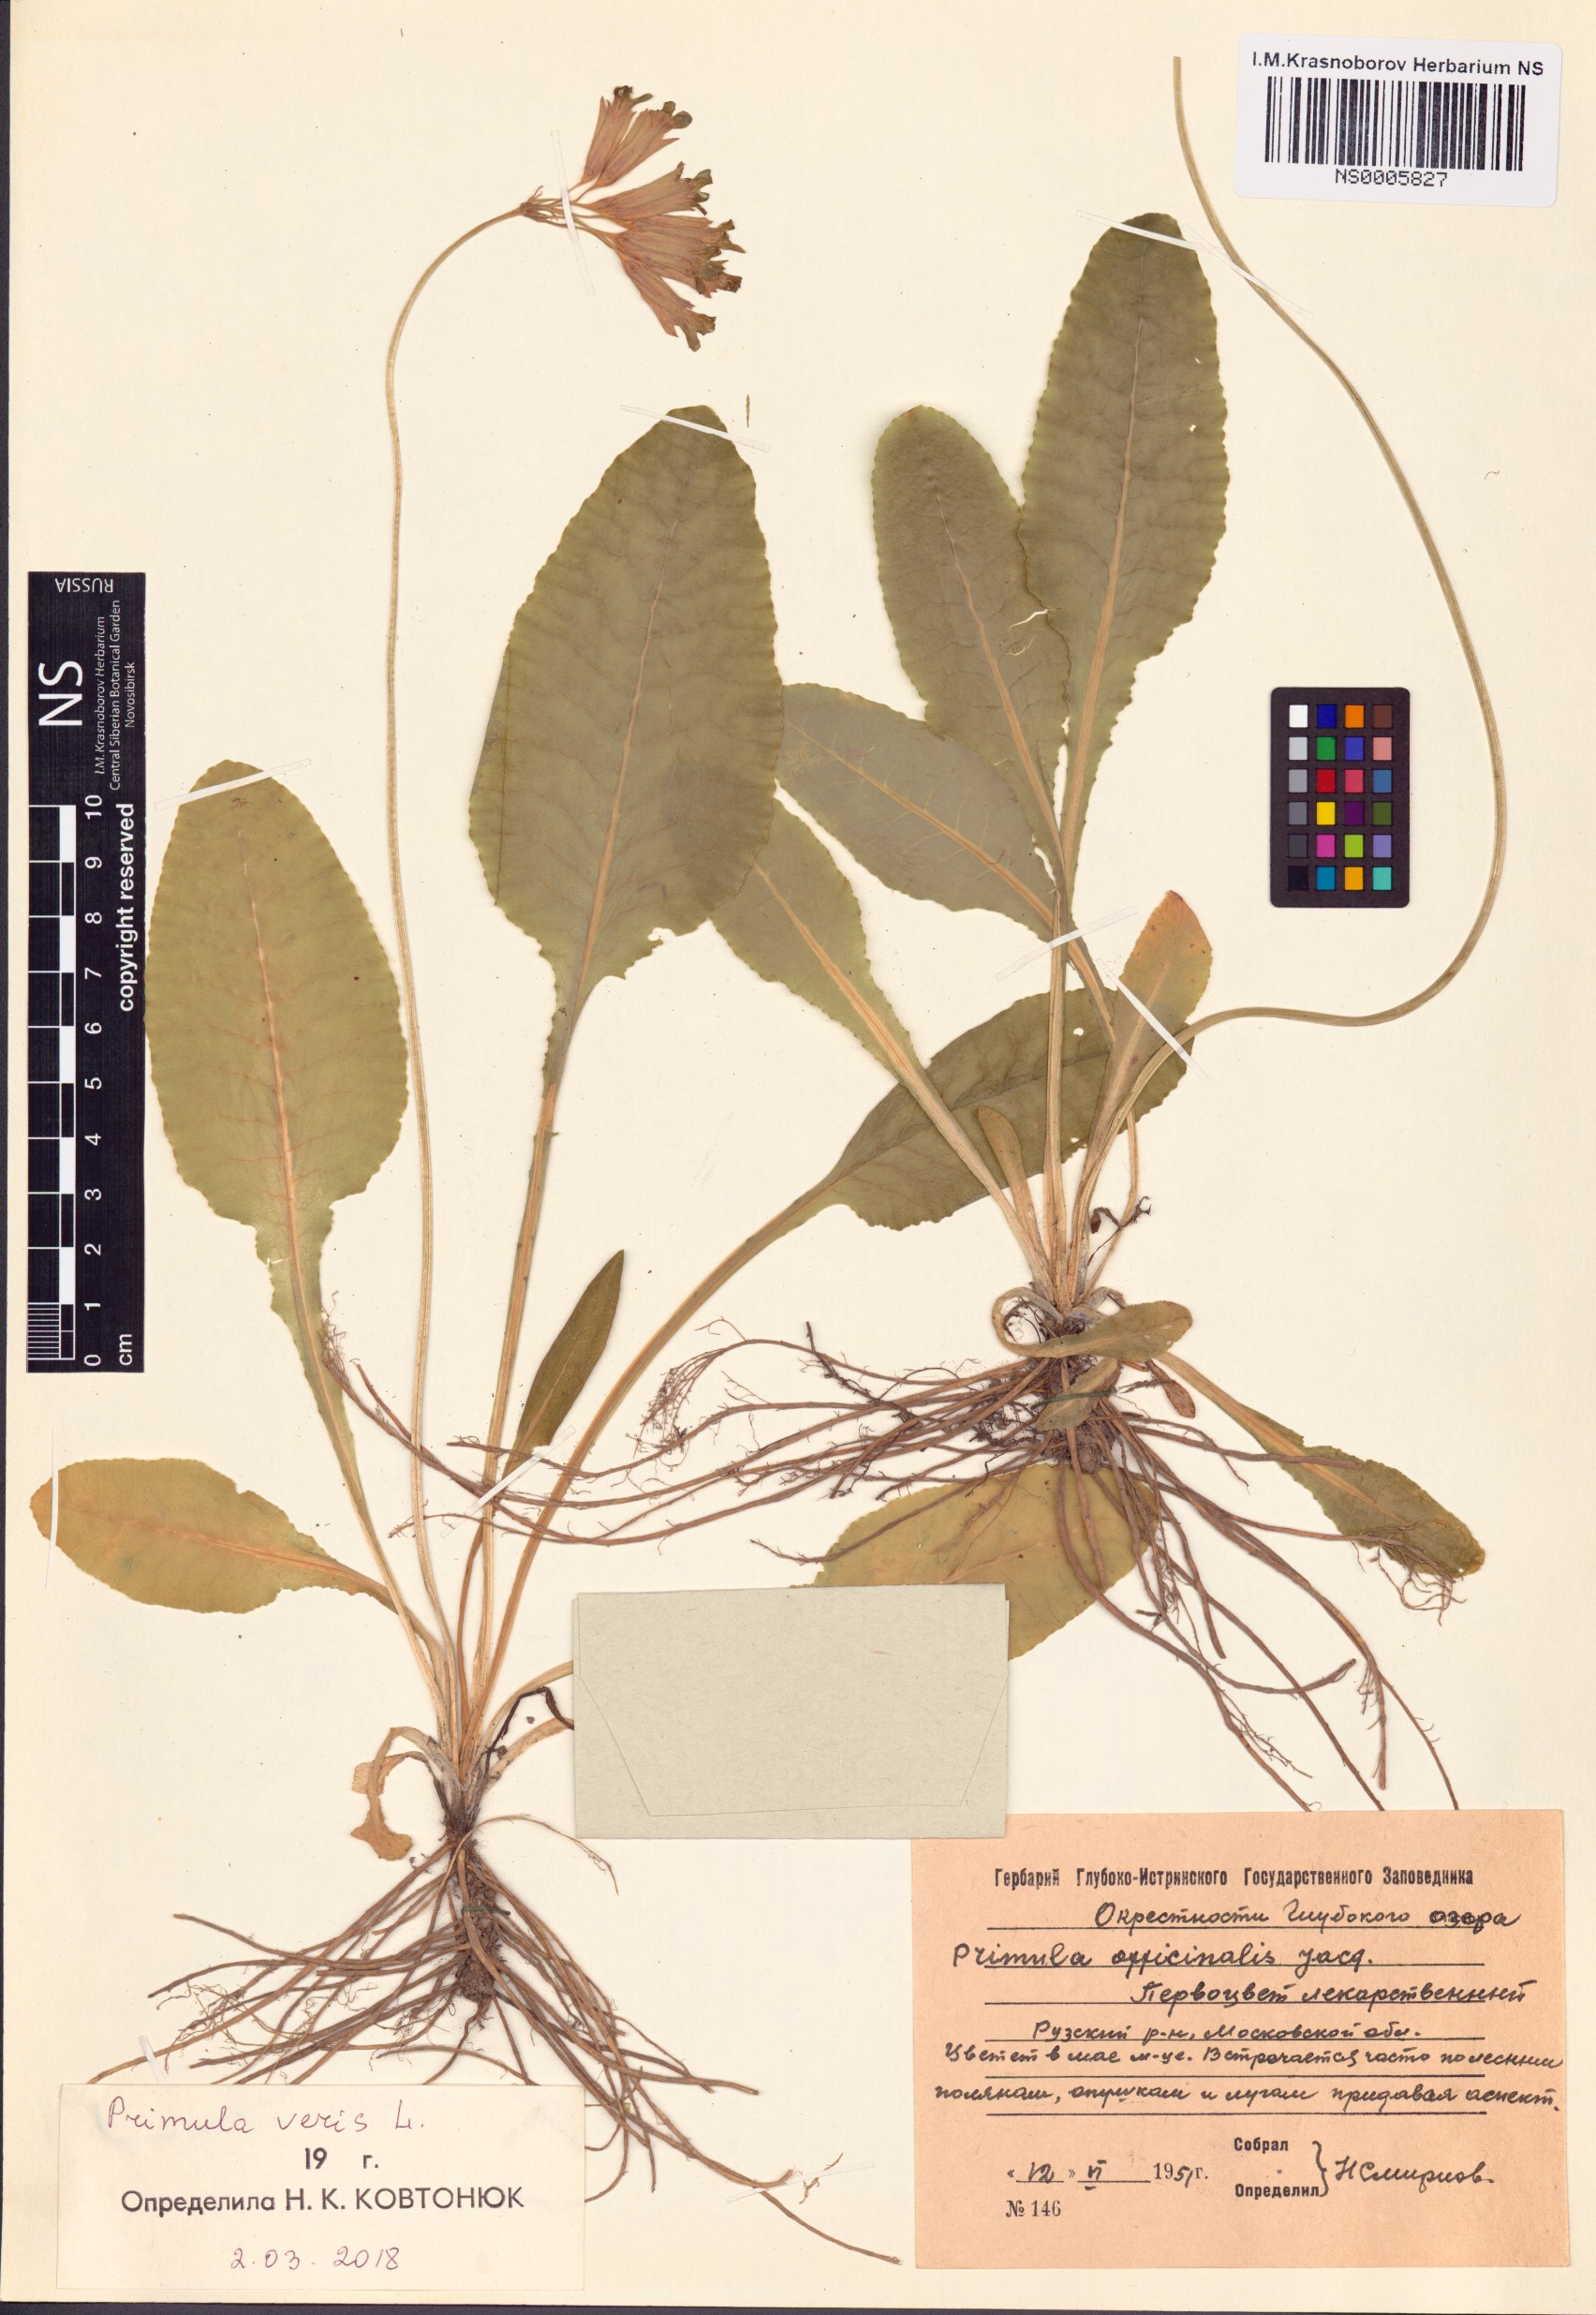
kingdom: Plantae
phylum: Tracheophyta
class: Magnoliopsida
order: Ericales
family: Primulaceae
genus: Primula
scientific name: Primula veris
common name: Cowslip
